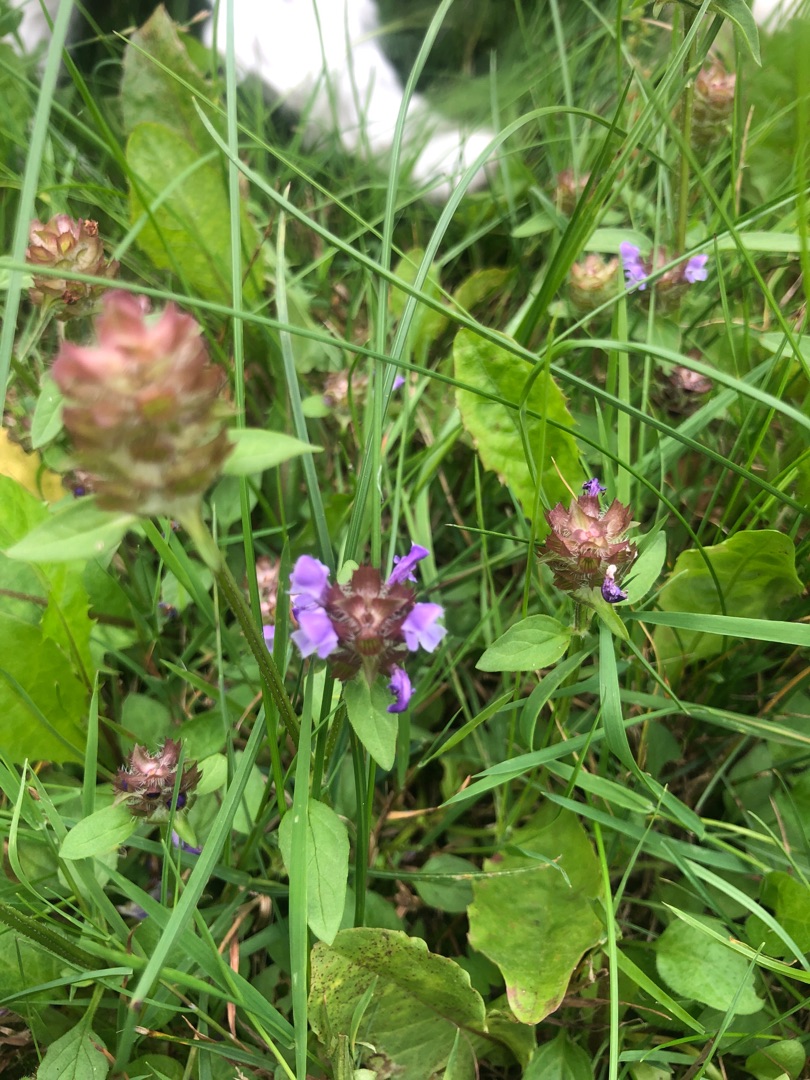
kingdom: Plantae
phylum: Tracheophyta
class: Magnoliopsida
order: Lamiales
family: Lamiaceae
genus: Prunella
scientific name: Prunella vulgaris
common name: Almindelig brunelle
